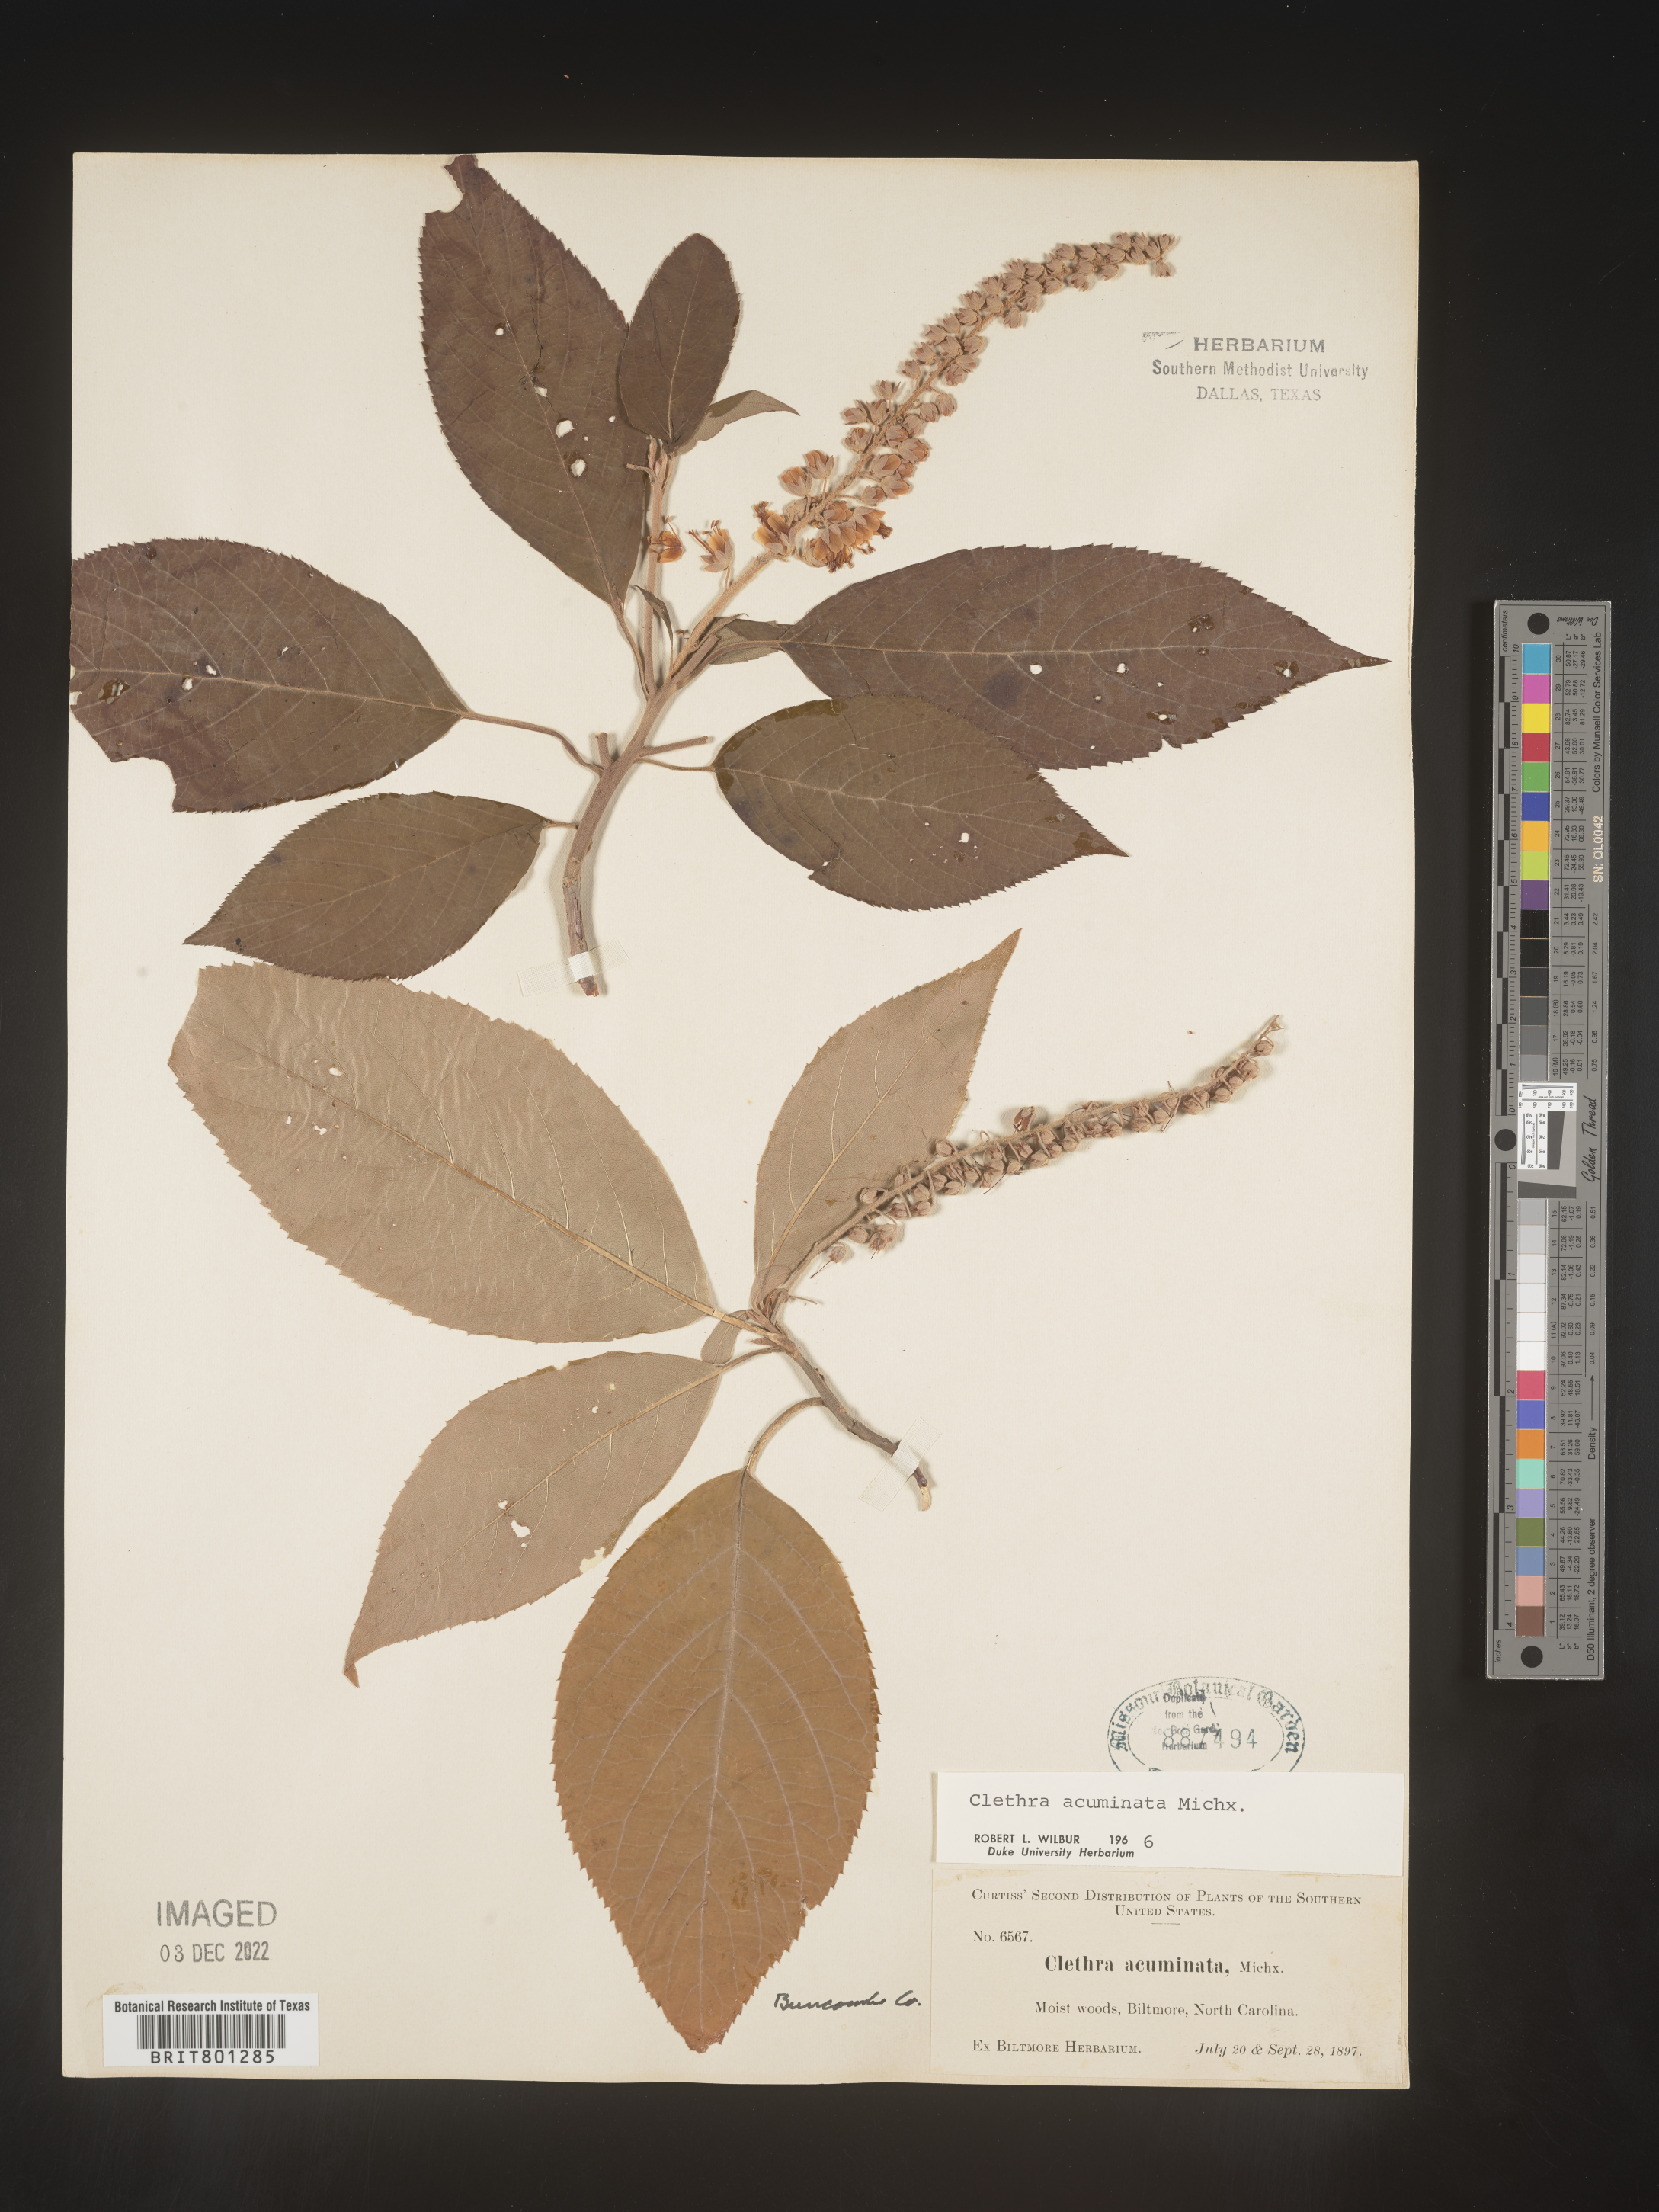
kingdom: Plantae
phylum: Tracheophyta
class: Magnoliopsida
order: Ericales
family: Clethraceae
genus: Clethra
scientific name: Clethra acuminata
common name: Mountain sweet pepperbush
